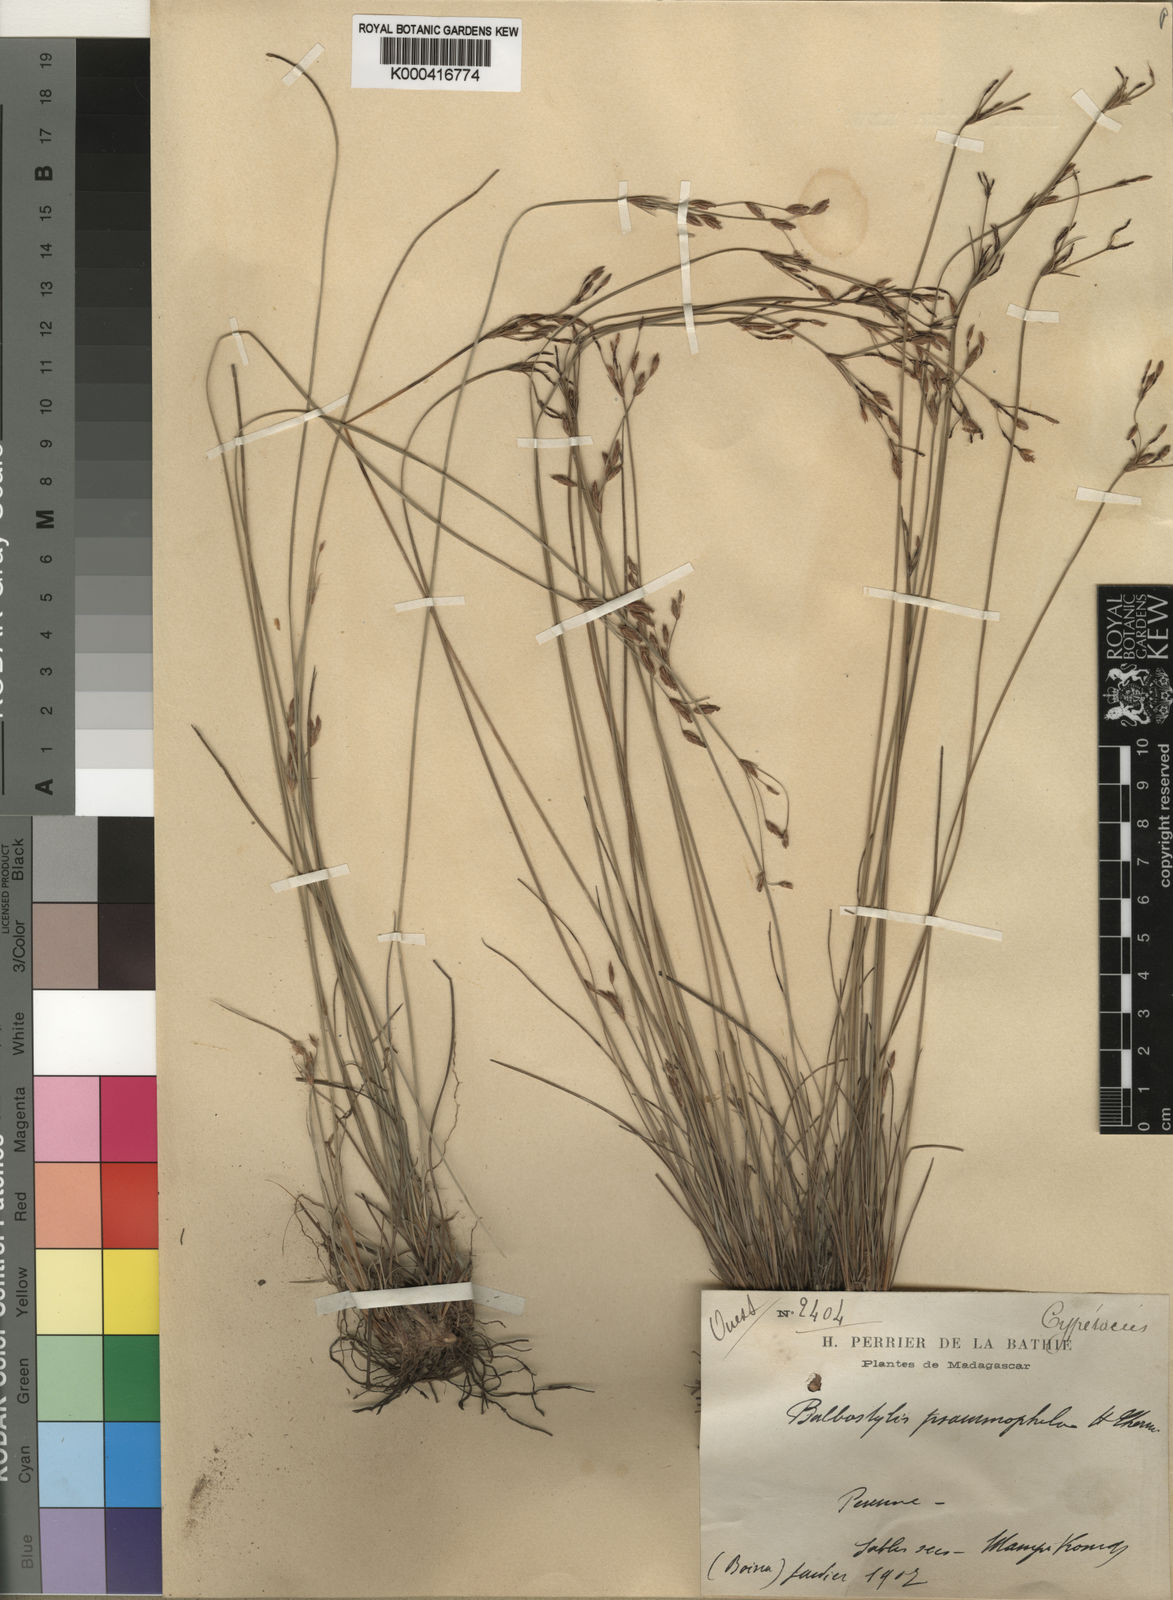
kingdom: Plantae
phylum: Tracheophyta
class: Liliopsida
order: Poales
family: Cyperaceae
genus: Bulbostylis
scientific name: Bulbostylis psammophila
